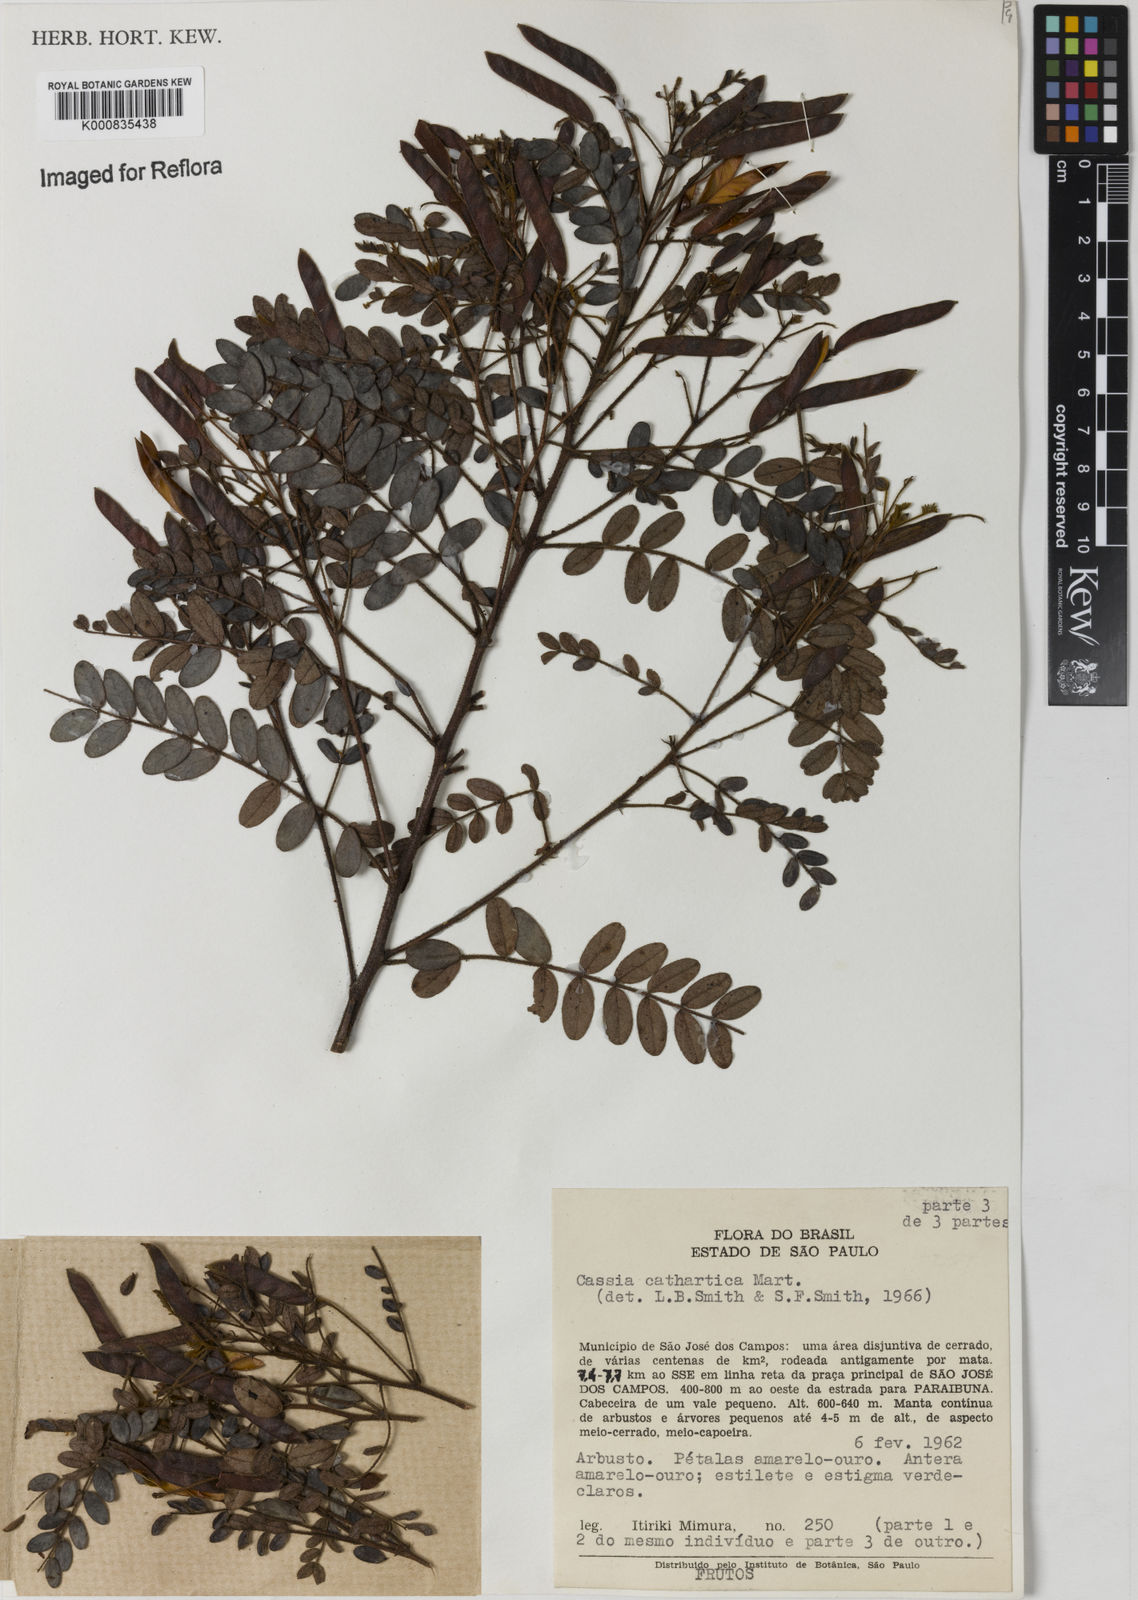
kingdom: Plantae
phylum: Tracheophyta
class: Magnoliopsida
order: Fabales
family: Fabaceae
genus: Chamaecrista
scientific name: Chamaecrista cathartica
